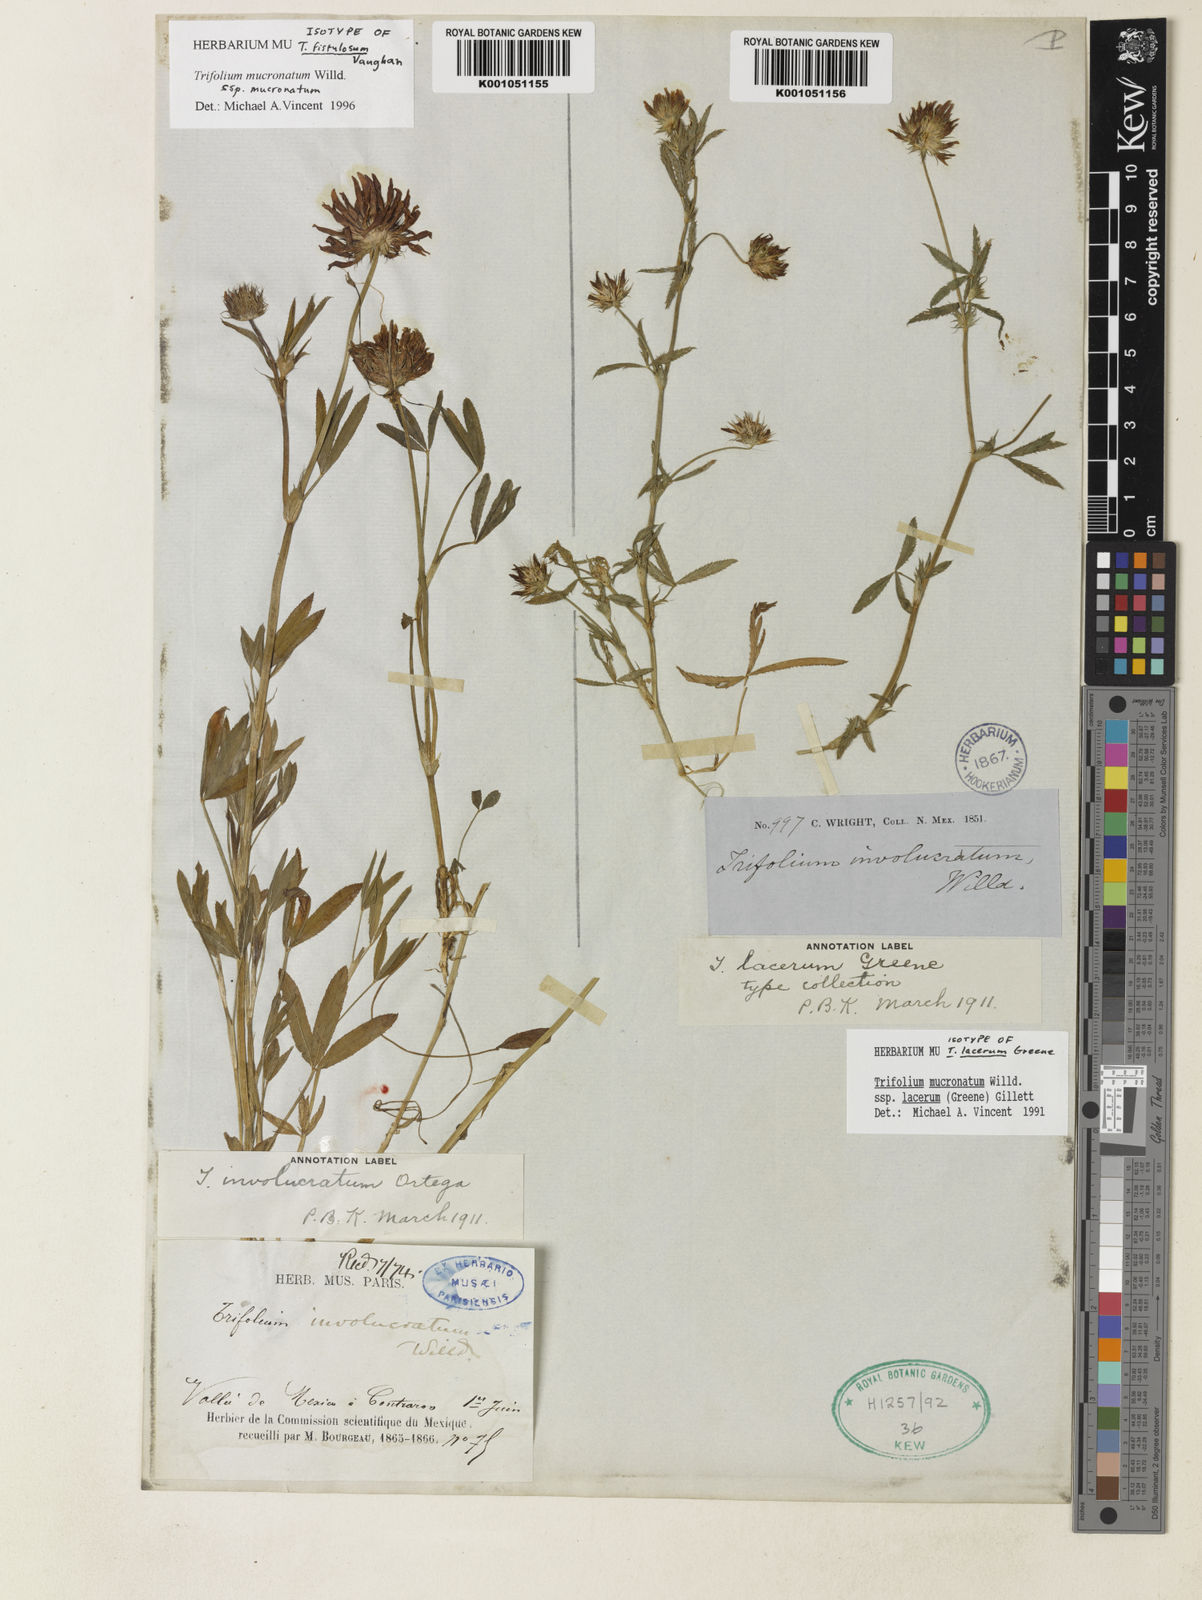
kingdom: Plantae
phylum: Tracheophyta
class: Magnoliopsida
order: Fabales
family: Fabaceae
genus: Trifolium
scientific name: Trifolium wormskioldii
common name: Springbank clover
